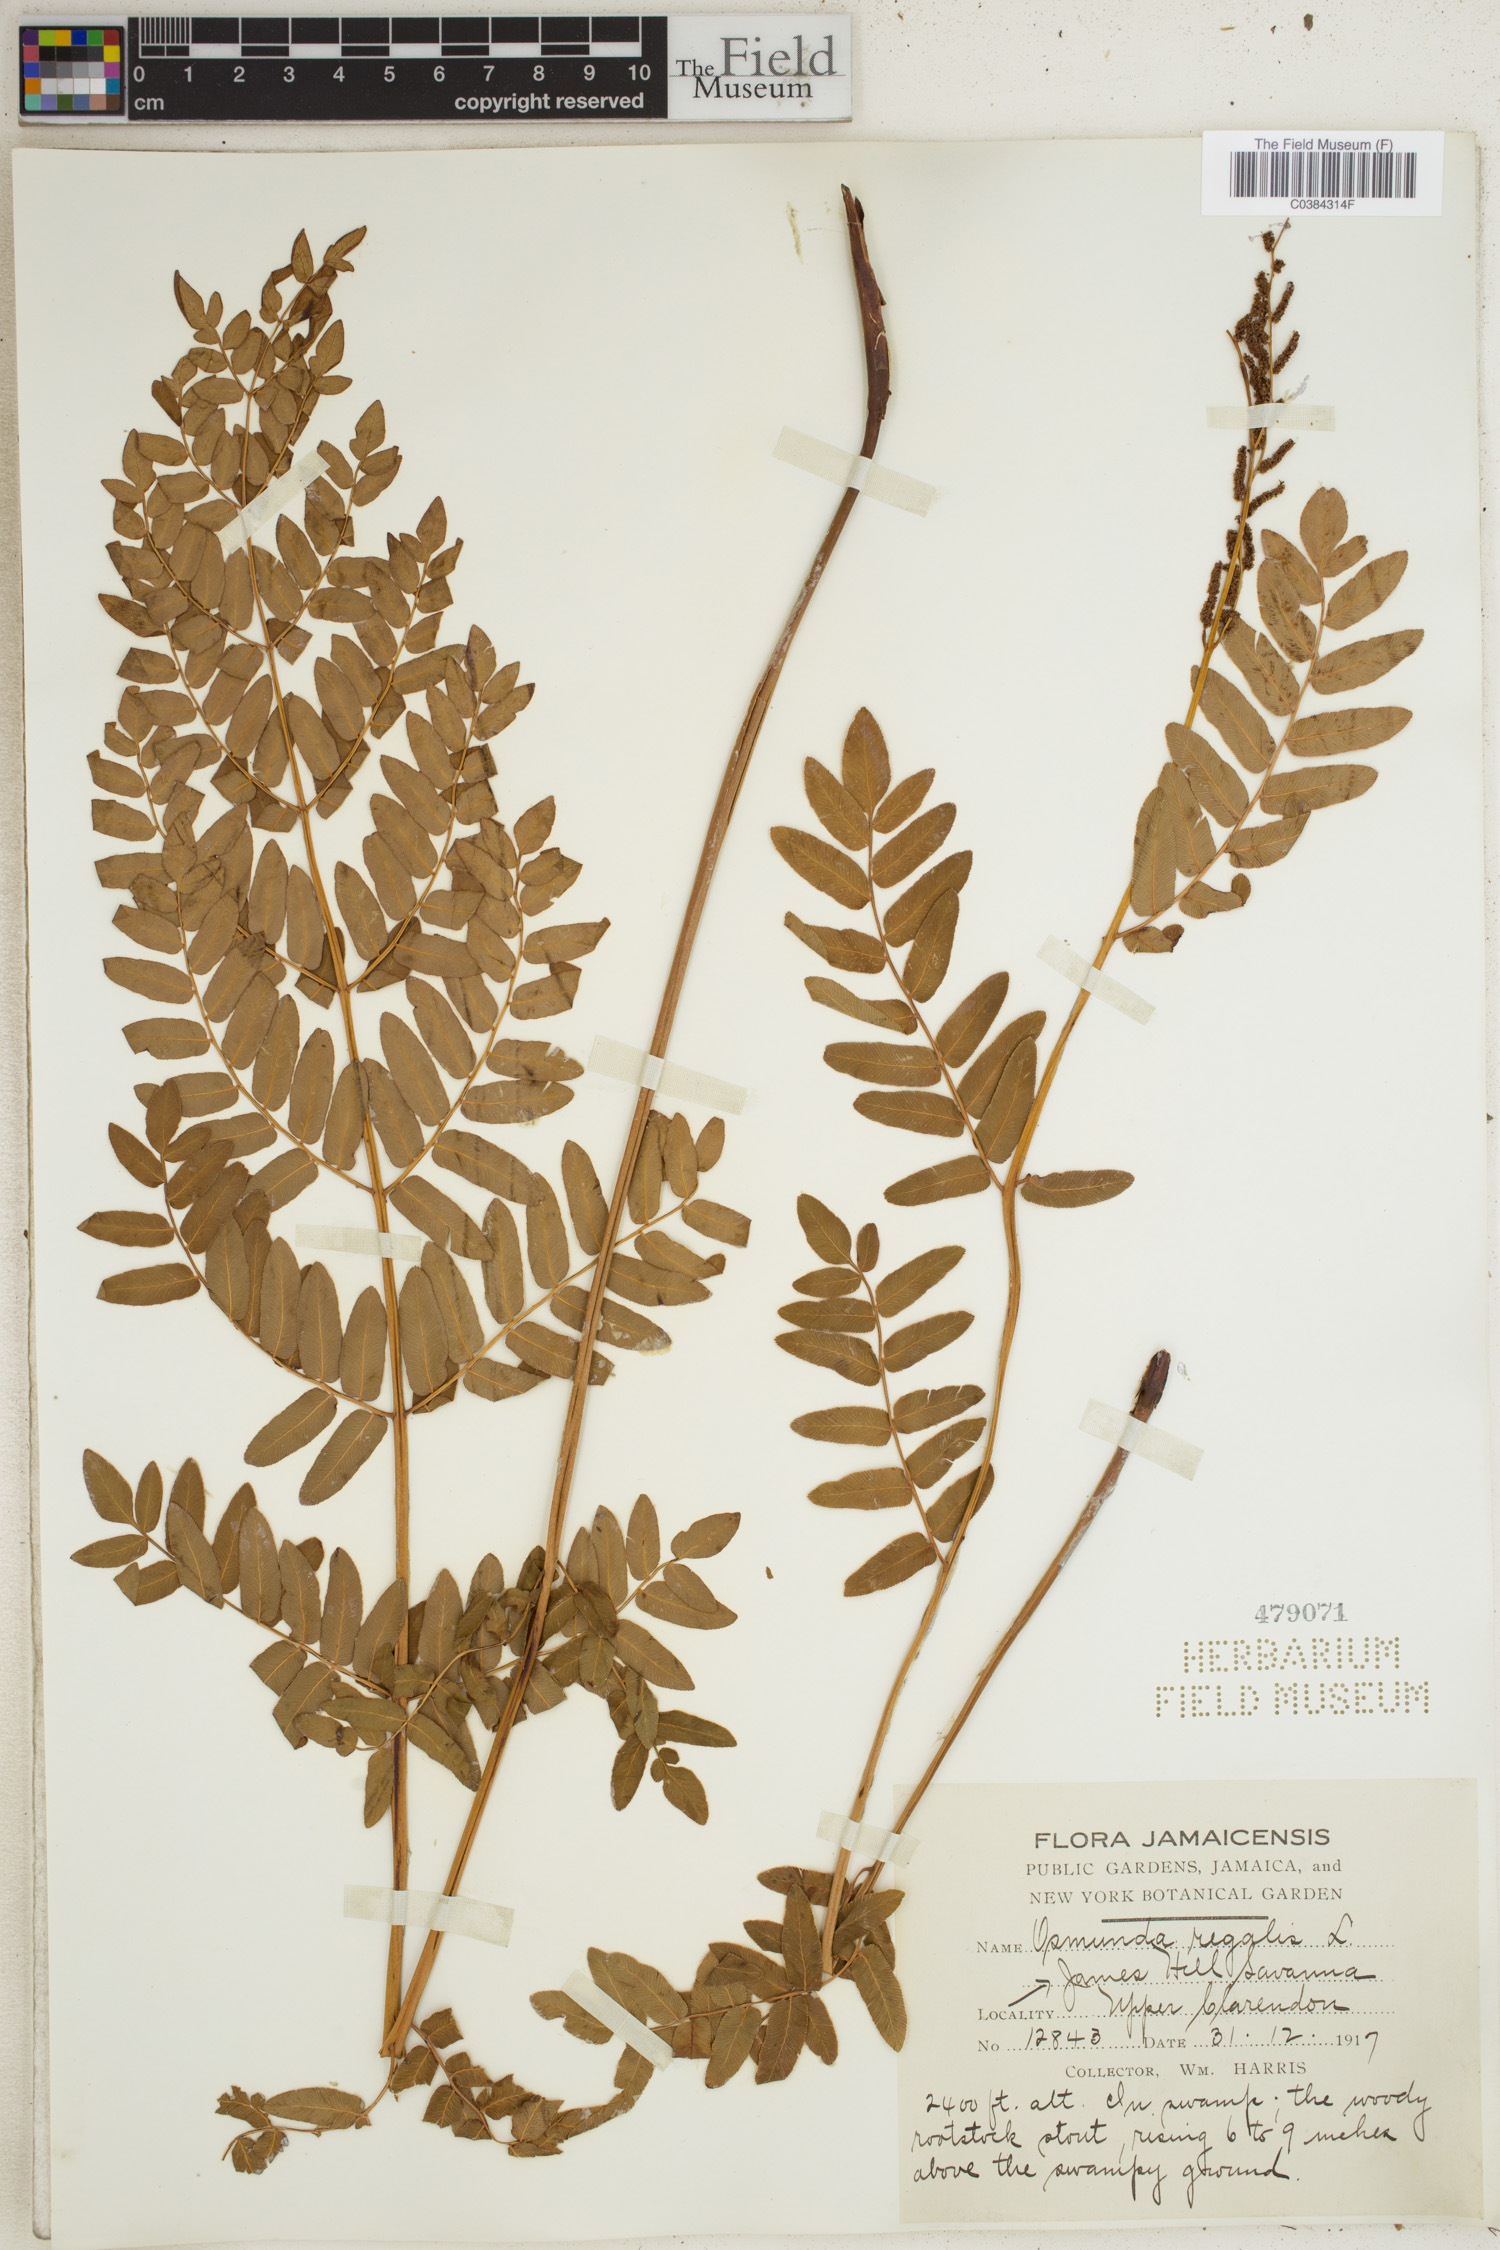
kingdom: Plantae
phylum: Tracheophyta
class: Polypodiopsida
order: Osmundales
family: Osmundaceae
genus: Osmunda
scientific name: Osmunda regalis
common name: Royal fern
